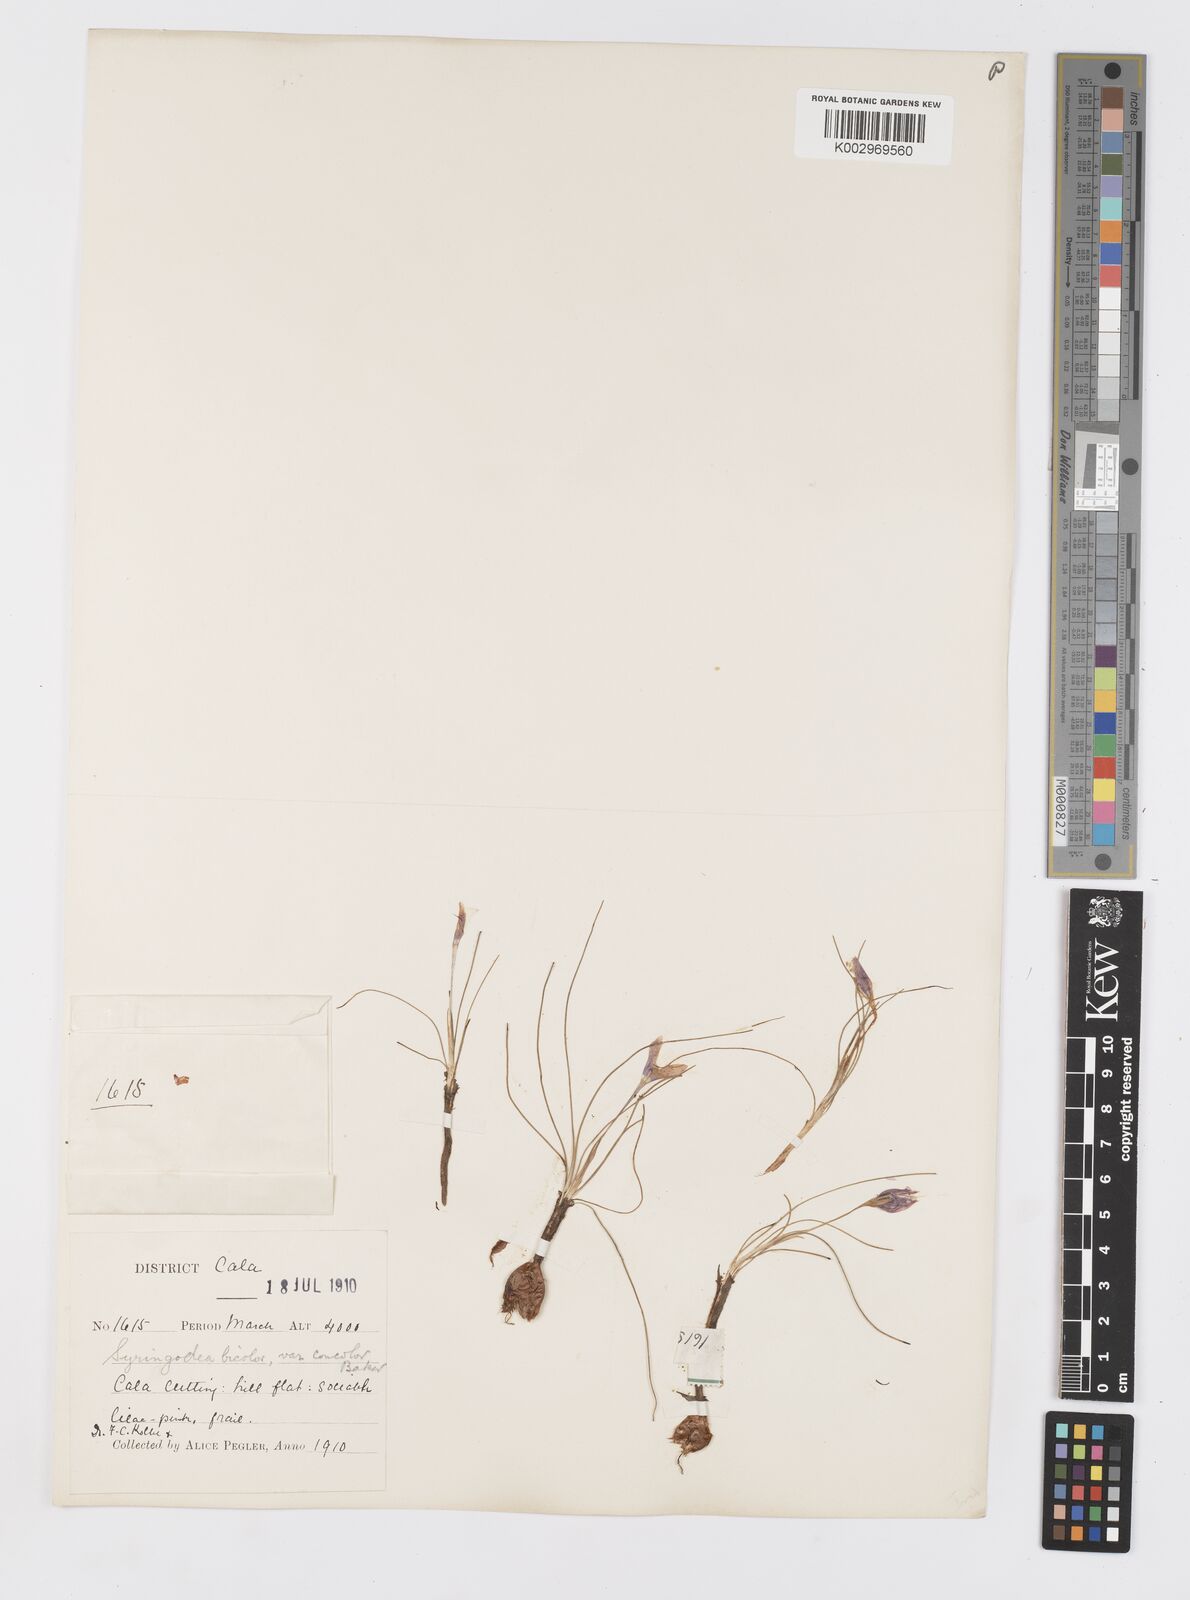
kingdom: Plantae
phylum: Tracheophyta
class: Liliopsida
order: Asparagales
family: Iridaceae
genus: Syringodea
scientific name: Syringodea concolor
